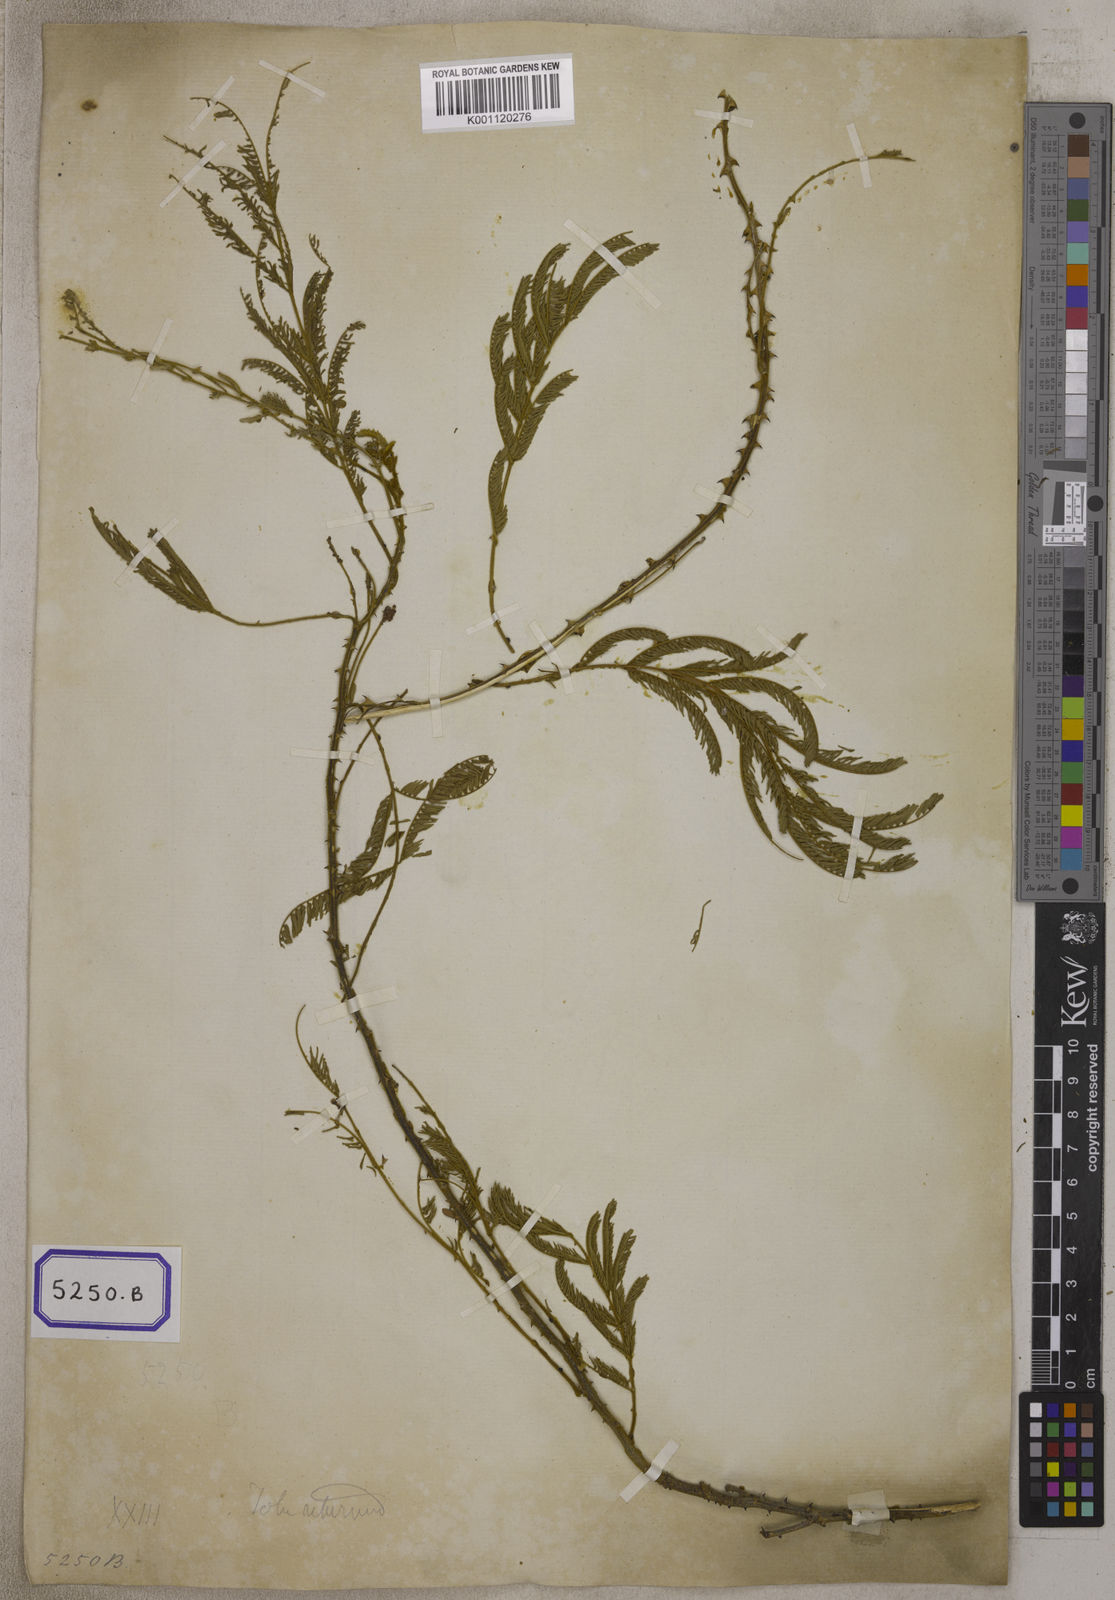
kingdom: Plantae
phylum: Tracheophyta
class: Magnoliopsida
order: Fabales
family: Fabaceae
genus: Senegalia
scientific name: Senegalia rugata
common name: Soap-pod
